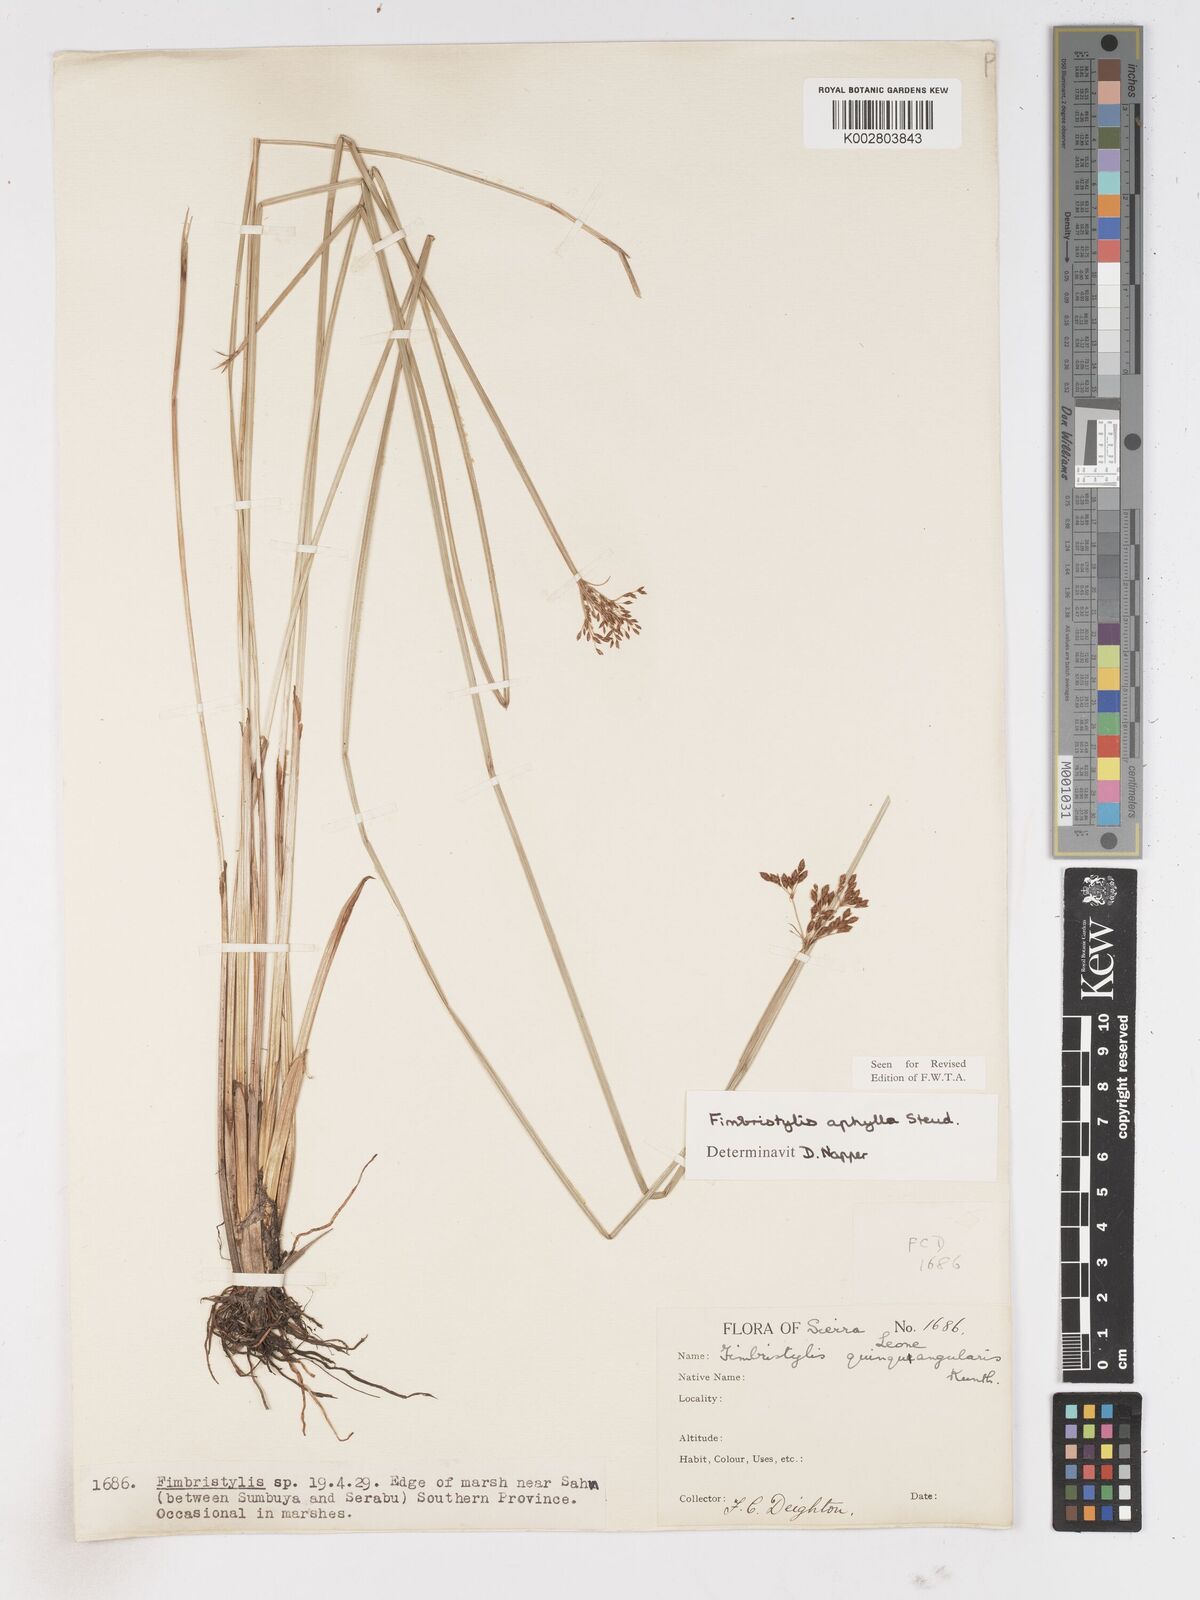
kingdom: Plantae
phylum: Tracheophyta
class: Liliopsida
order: Poales
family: Cyperaceae
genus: Fimbristylis
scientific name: Fimbristylis aphylla
